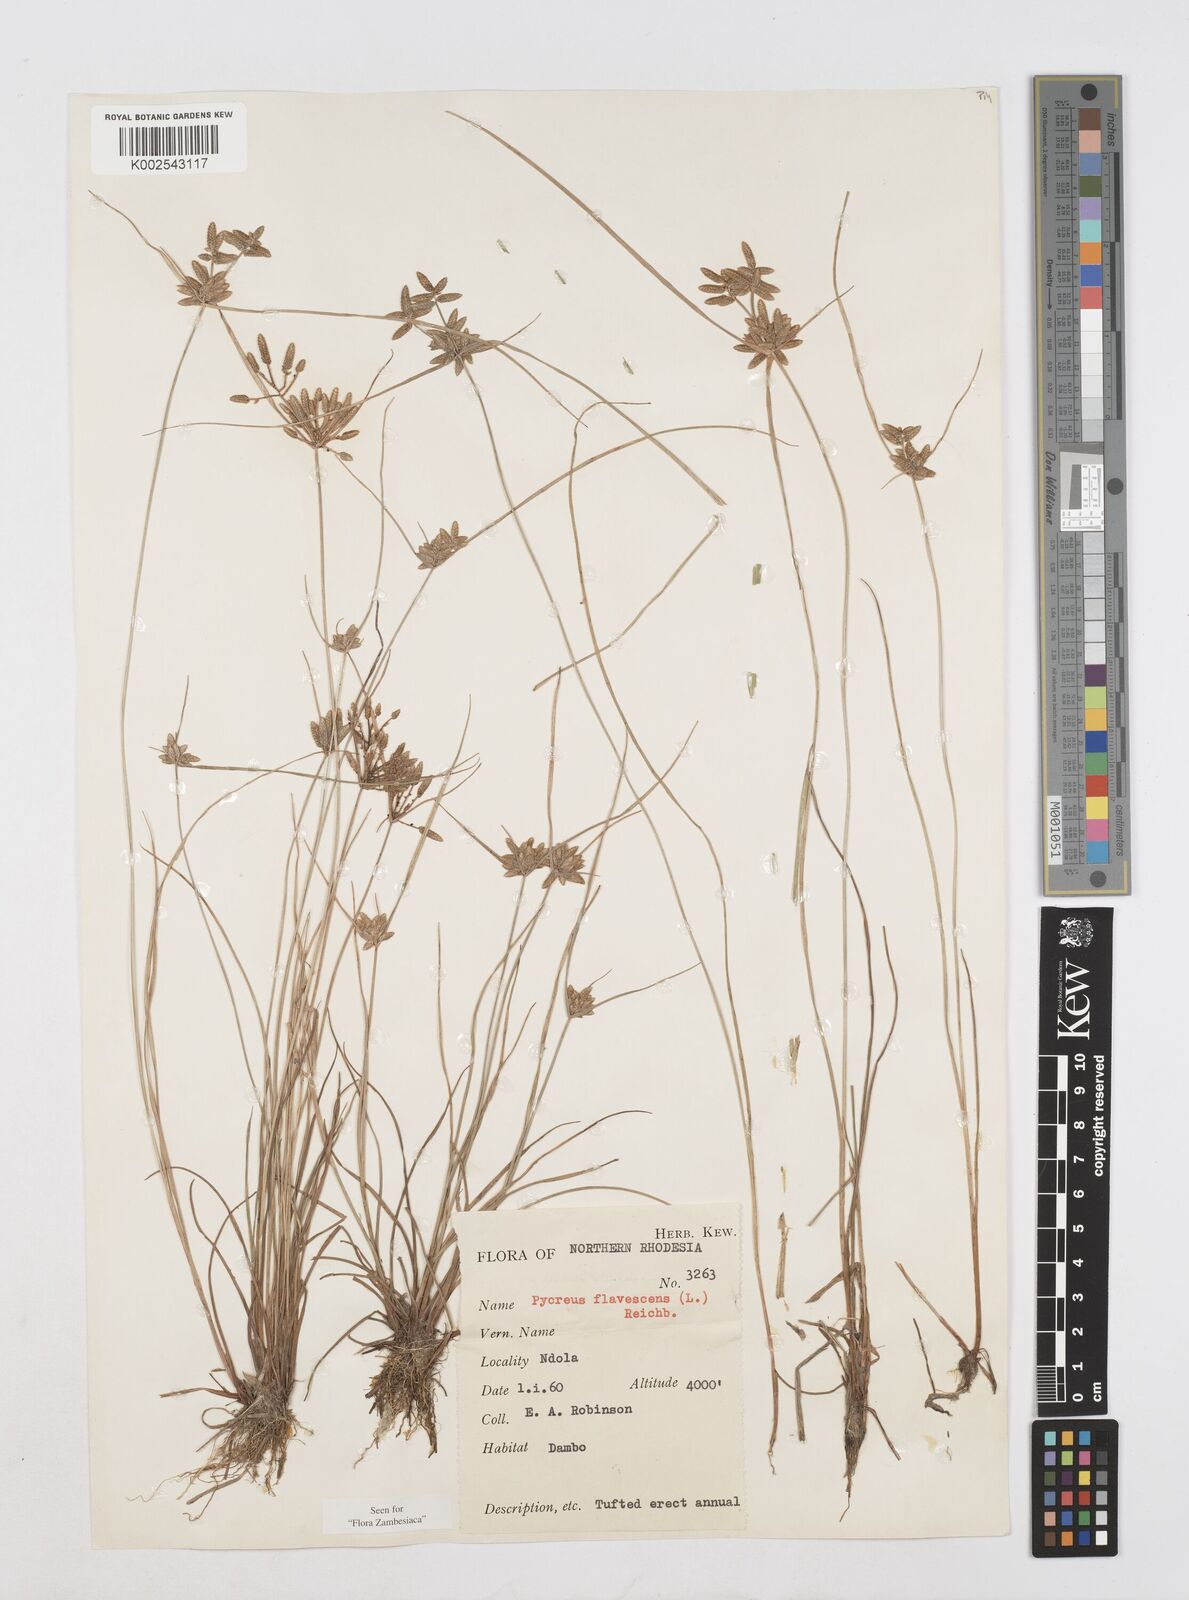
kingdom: Plantae
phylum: Tracheophyta
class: Liliopsida
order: Poales
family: Cyperaceae
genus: Cyperus
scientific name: Cyperus flavescens
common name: Yellow galingale
